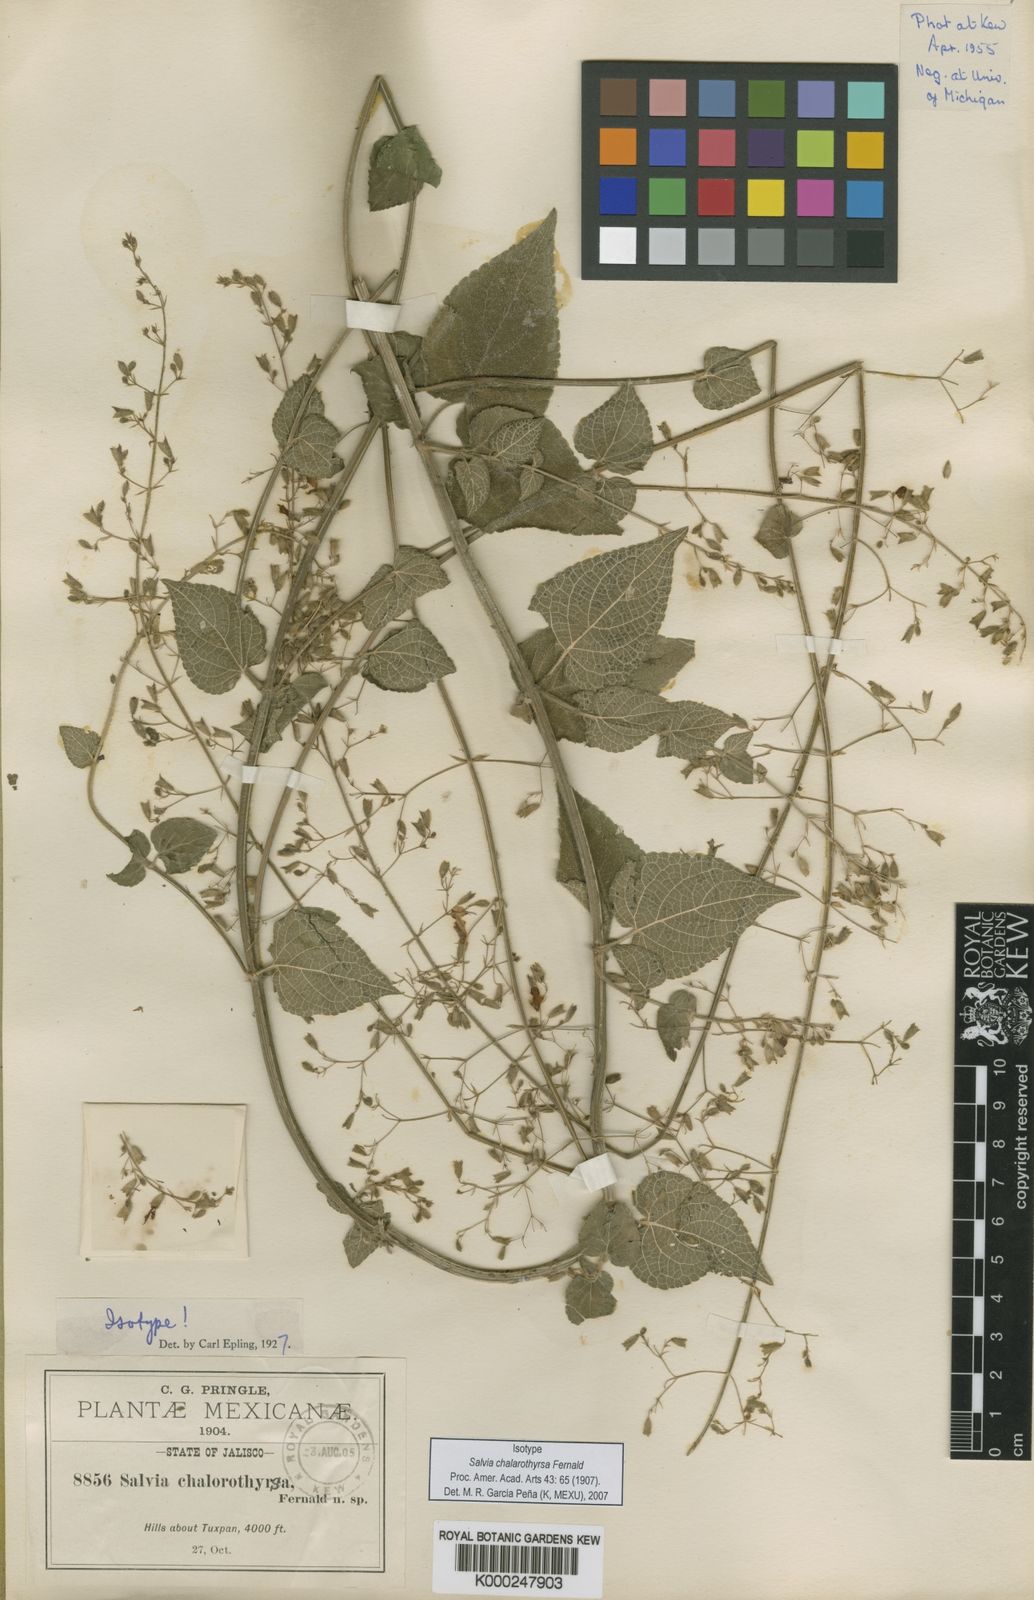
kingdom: Plantae
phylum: Tracheophyta
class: Magnoliopsida
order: Lamiales
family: Lamiaceae
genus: Salvia
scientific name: Salvia chalarothyrsa
